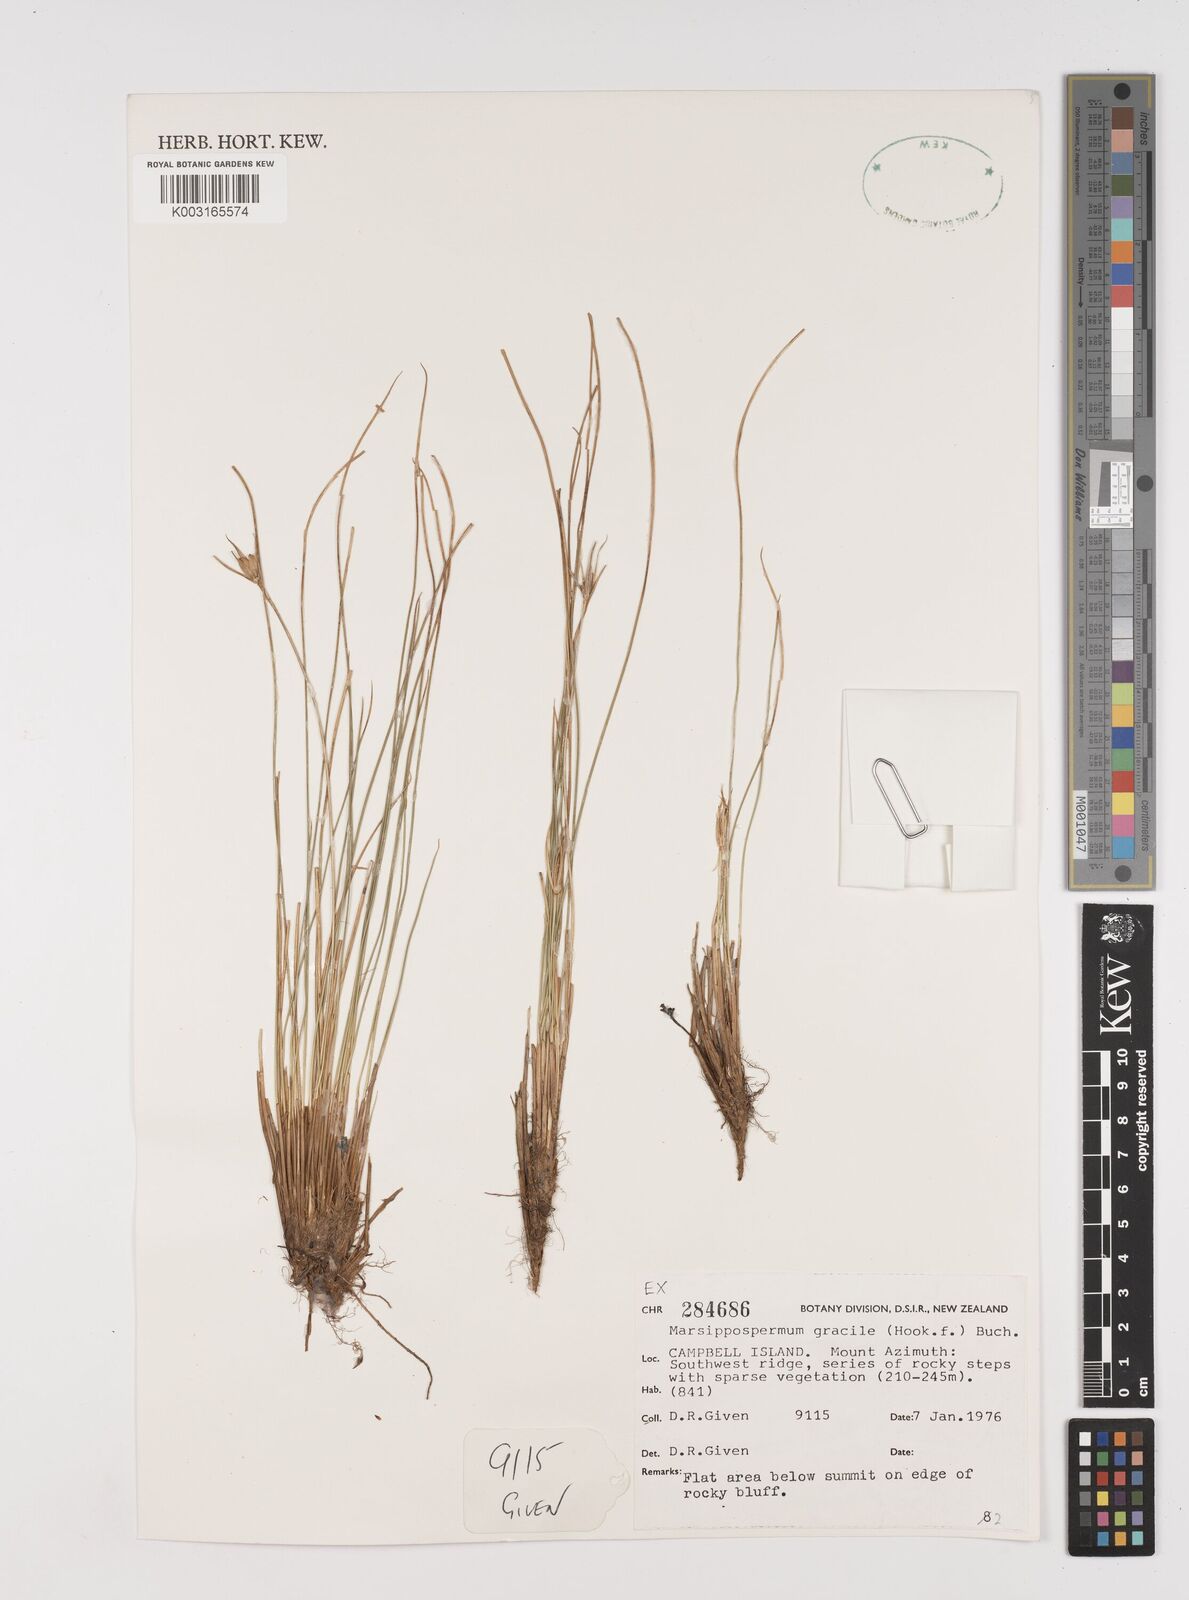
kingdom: Plantae
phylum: Tracheophyta
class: Liliopsida
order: Poales
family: Juncaceae
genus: Marsippospermum
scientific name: Marsippospermum gracile
